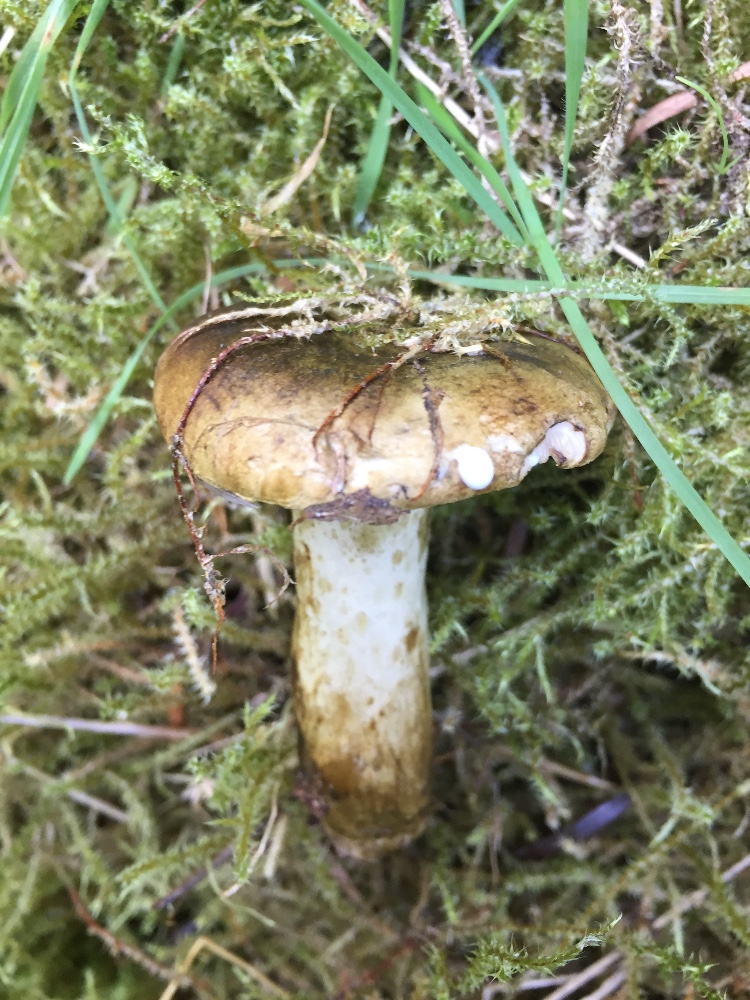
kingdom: Fungi
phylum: Basidiomycota
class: Agaricomycetes
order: Russulales
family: Russulaceae
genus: Lactarius
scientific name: Lactarius necator
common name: manddraber-mælkehat
